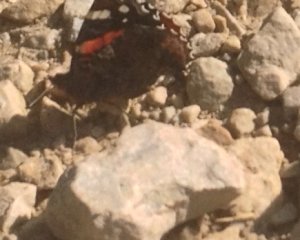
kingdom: Animalia
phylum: Arthropoda
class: Insecta
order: Lepidoptera
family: Nymphalidae
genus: Vanessa
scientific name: Vanessa atalanta
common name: Red Admiral
